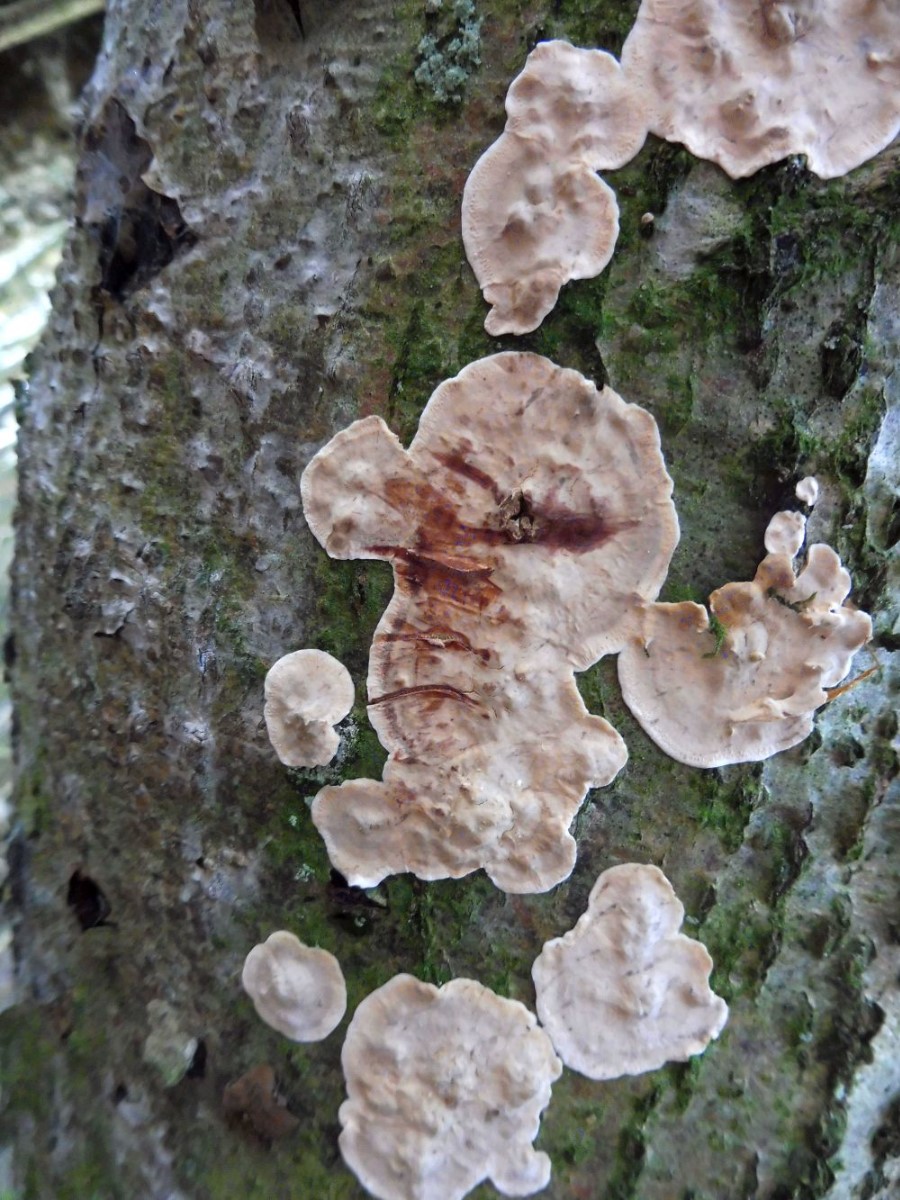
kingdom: Fungi
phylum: Basidiomycota
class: Agaricomycetes
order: Russulales
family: Stereaceae
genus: Stereum
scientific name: Stereum rugosum
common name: rynket lædersvamp
